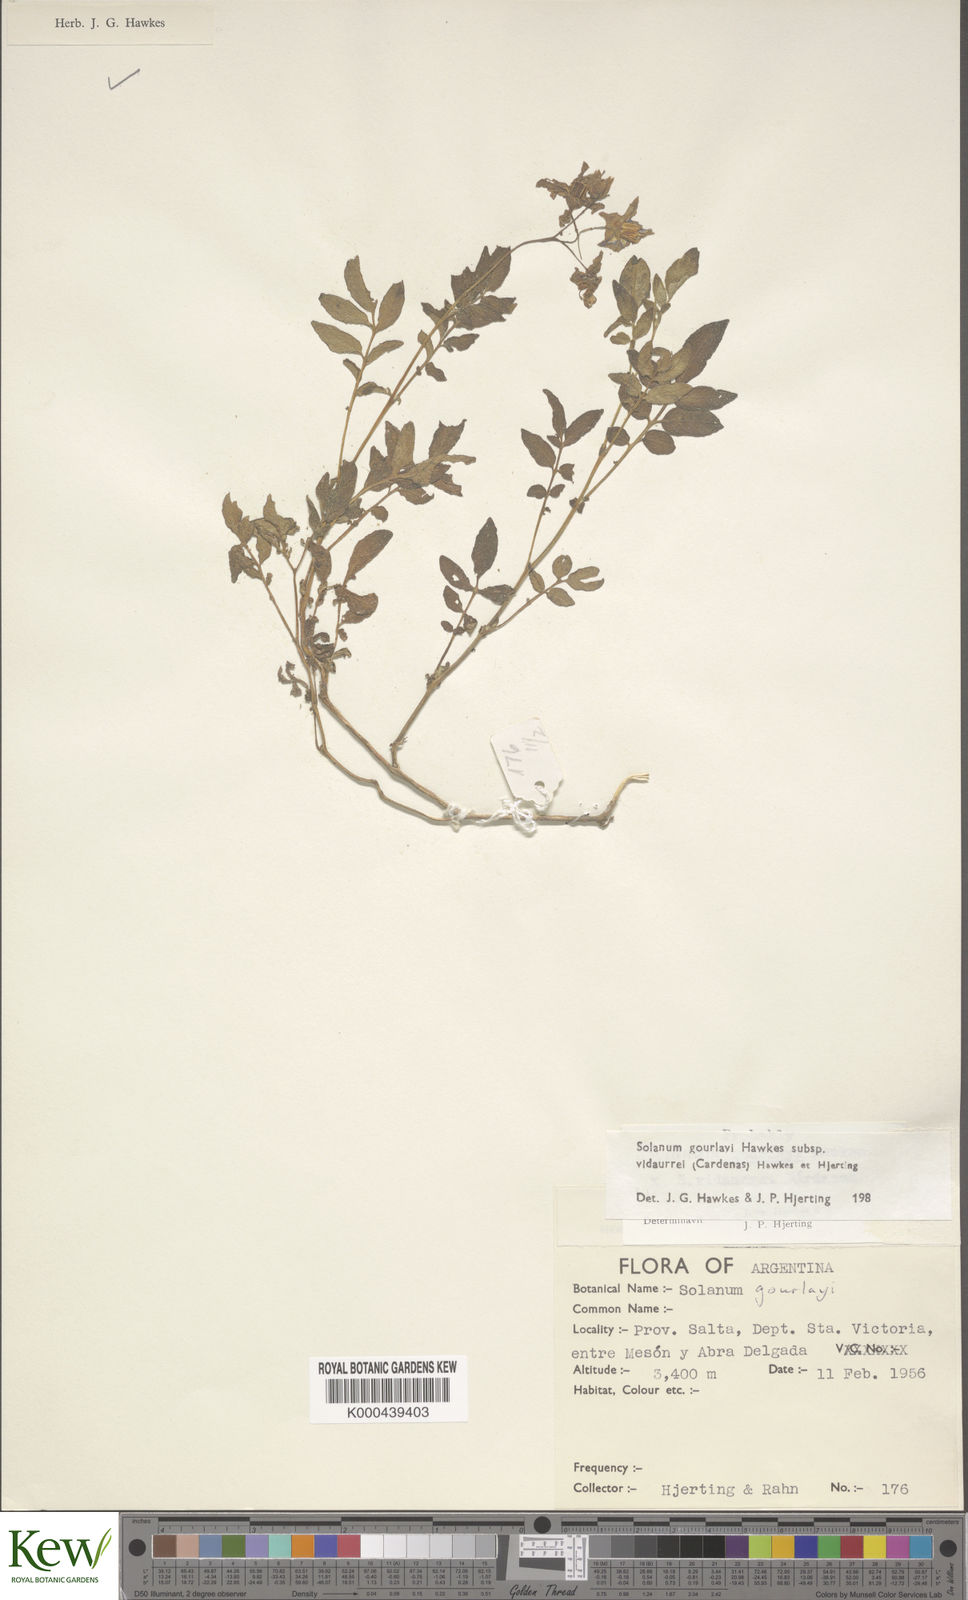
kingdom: Plantae
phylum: Tracheophyta
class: Magnoliopsida
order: Solanales
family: Solanaceae
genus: Solanum
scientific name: Solanum brevicaule
